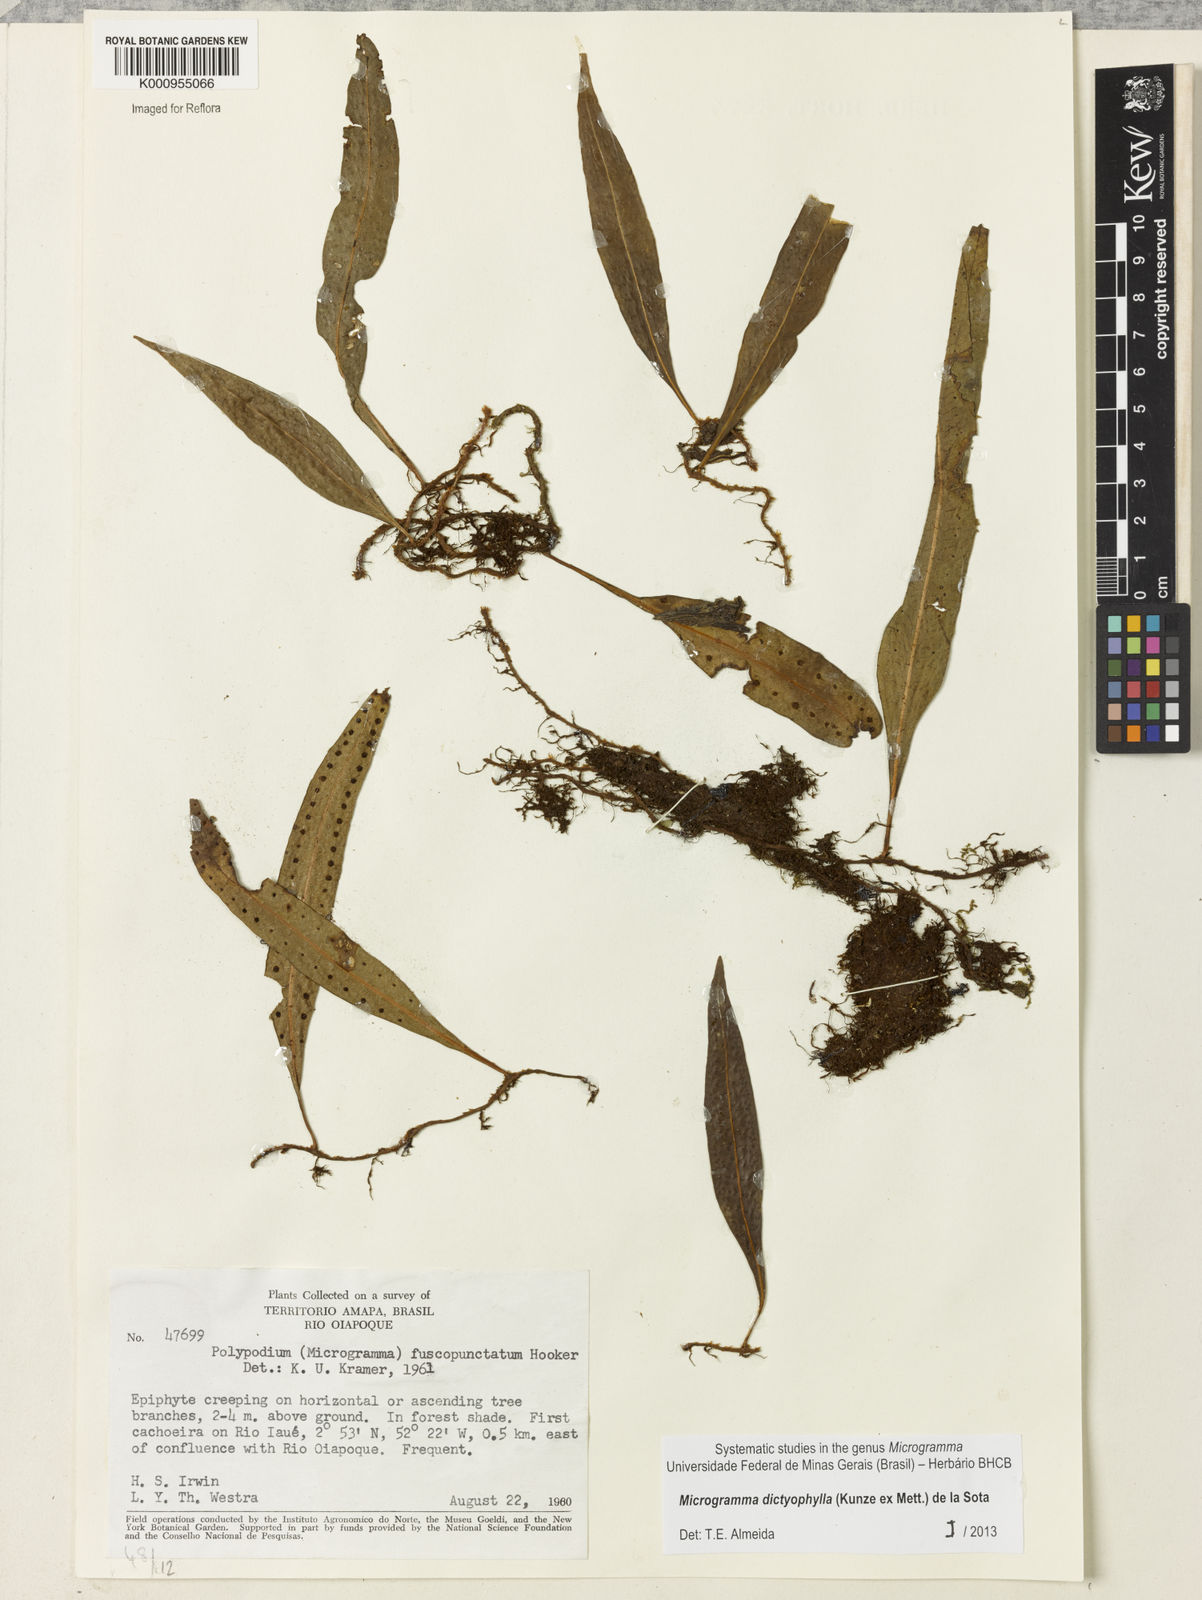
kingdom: Plantae
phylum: Tracheophyta
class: Polypodiopsida
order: Polypodiales
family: Polypodiaceae
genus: Microgramma
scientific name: Microgramma dictyophylla
